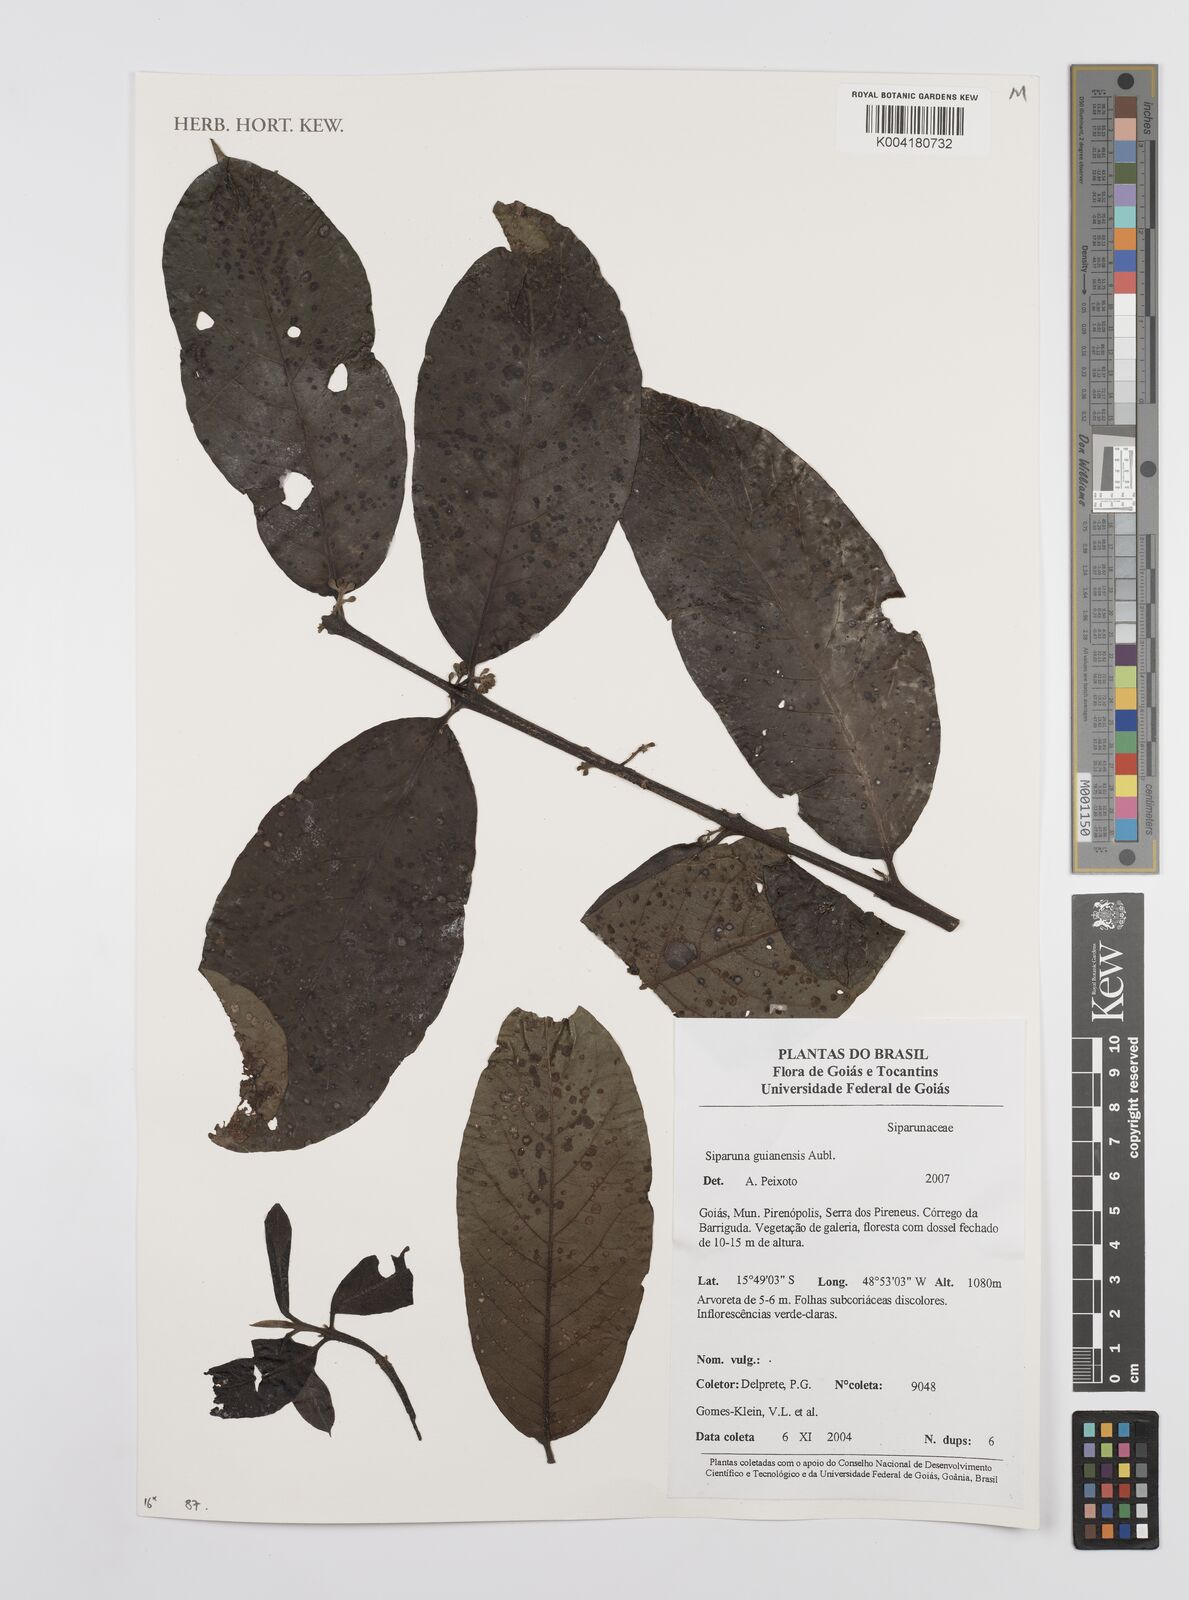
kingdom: Plantae
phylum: Tracheophyta
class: Magnoliopsida
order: Laurales
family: Siparunaceae
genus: Siparuna
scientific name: Siparuna guianensis
